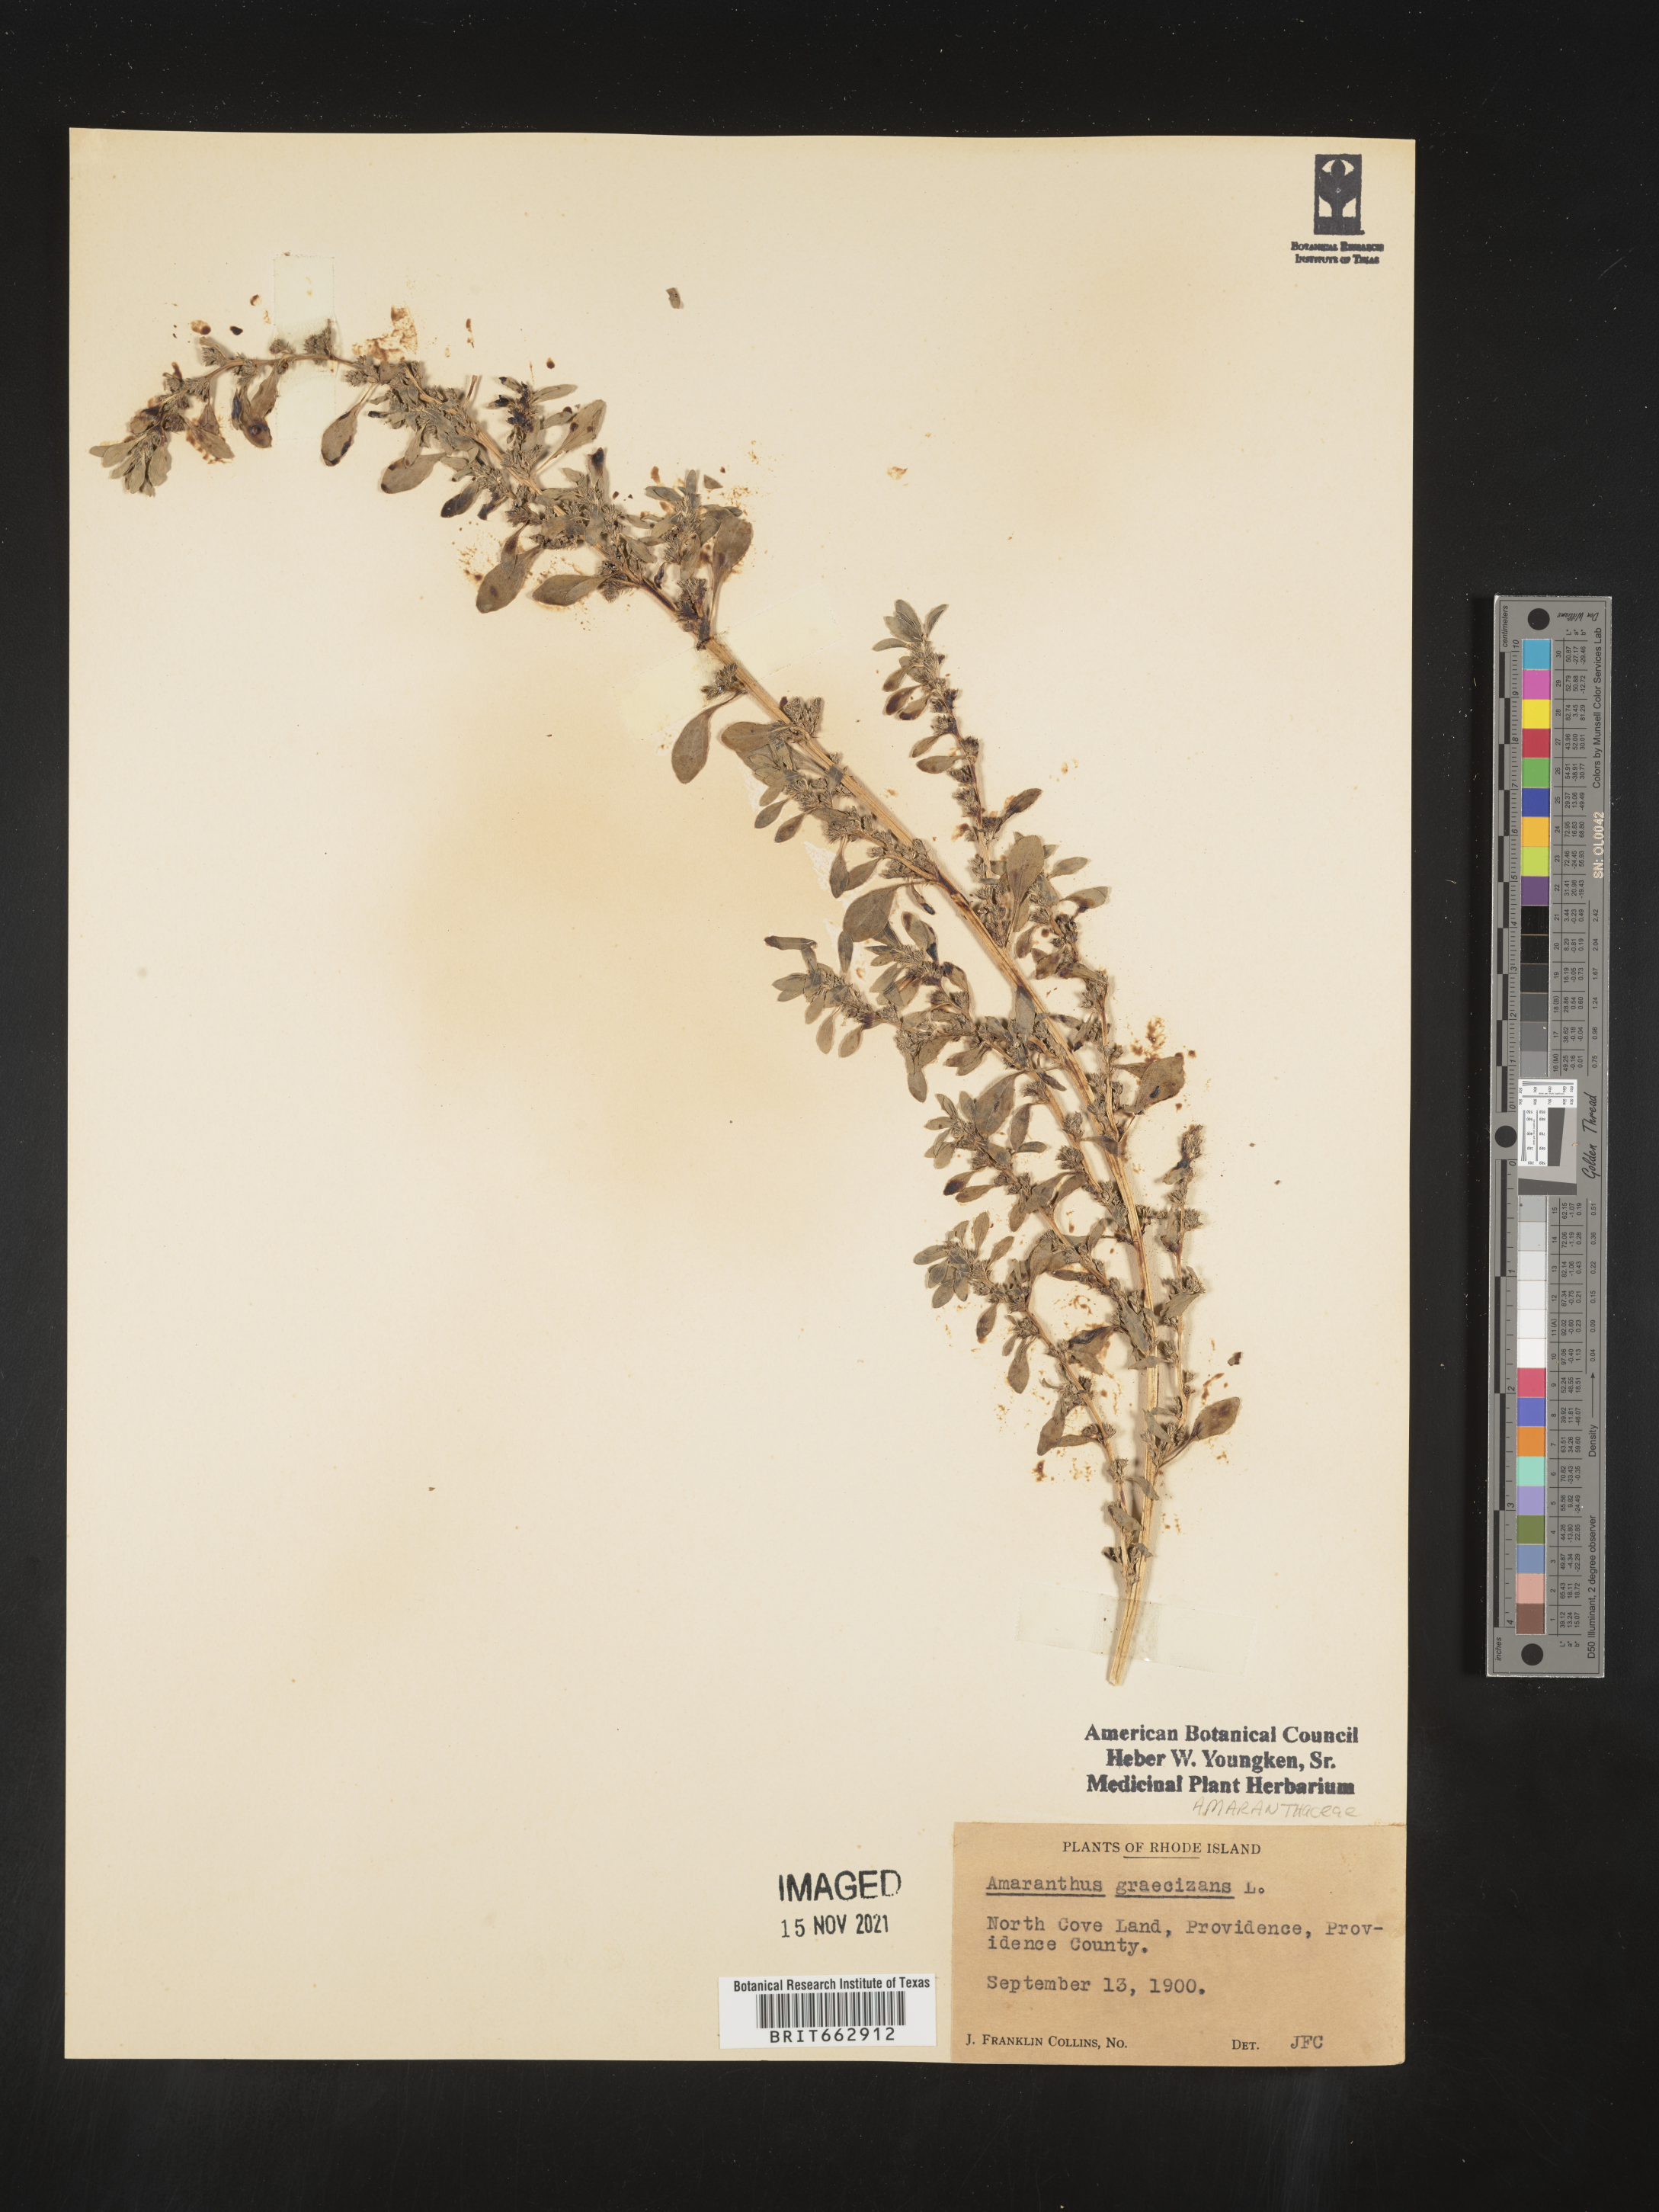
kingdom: Plantae
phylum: Tracheophyta
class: Magnoliopsida
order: Caryophyllales
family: Amaranthaceae
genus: Amaranthus
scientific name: Amaranthus
